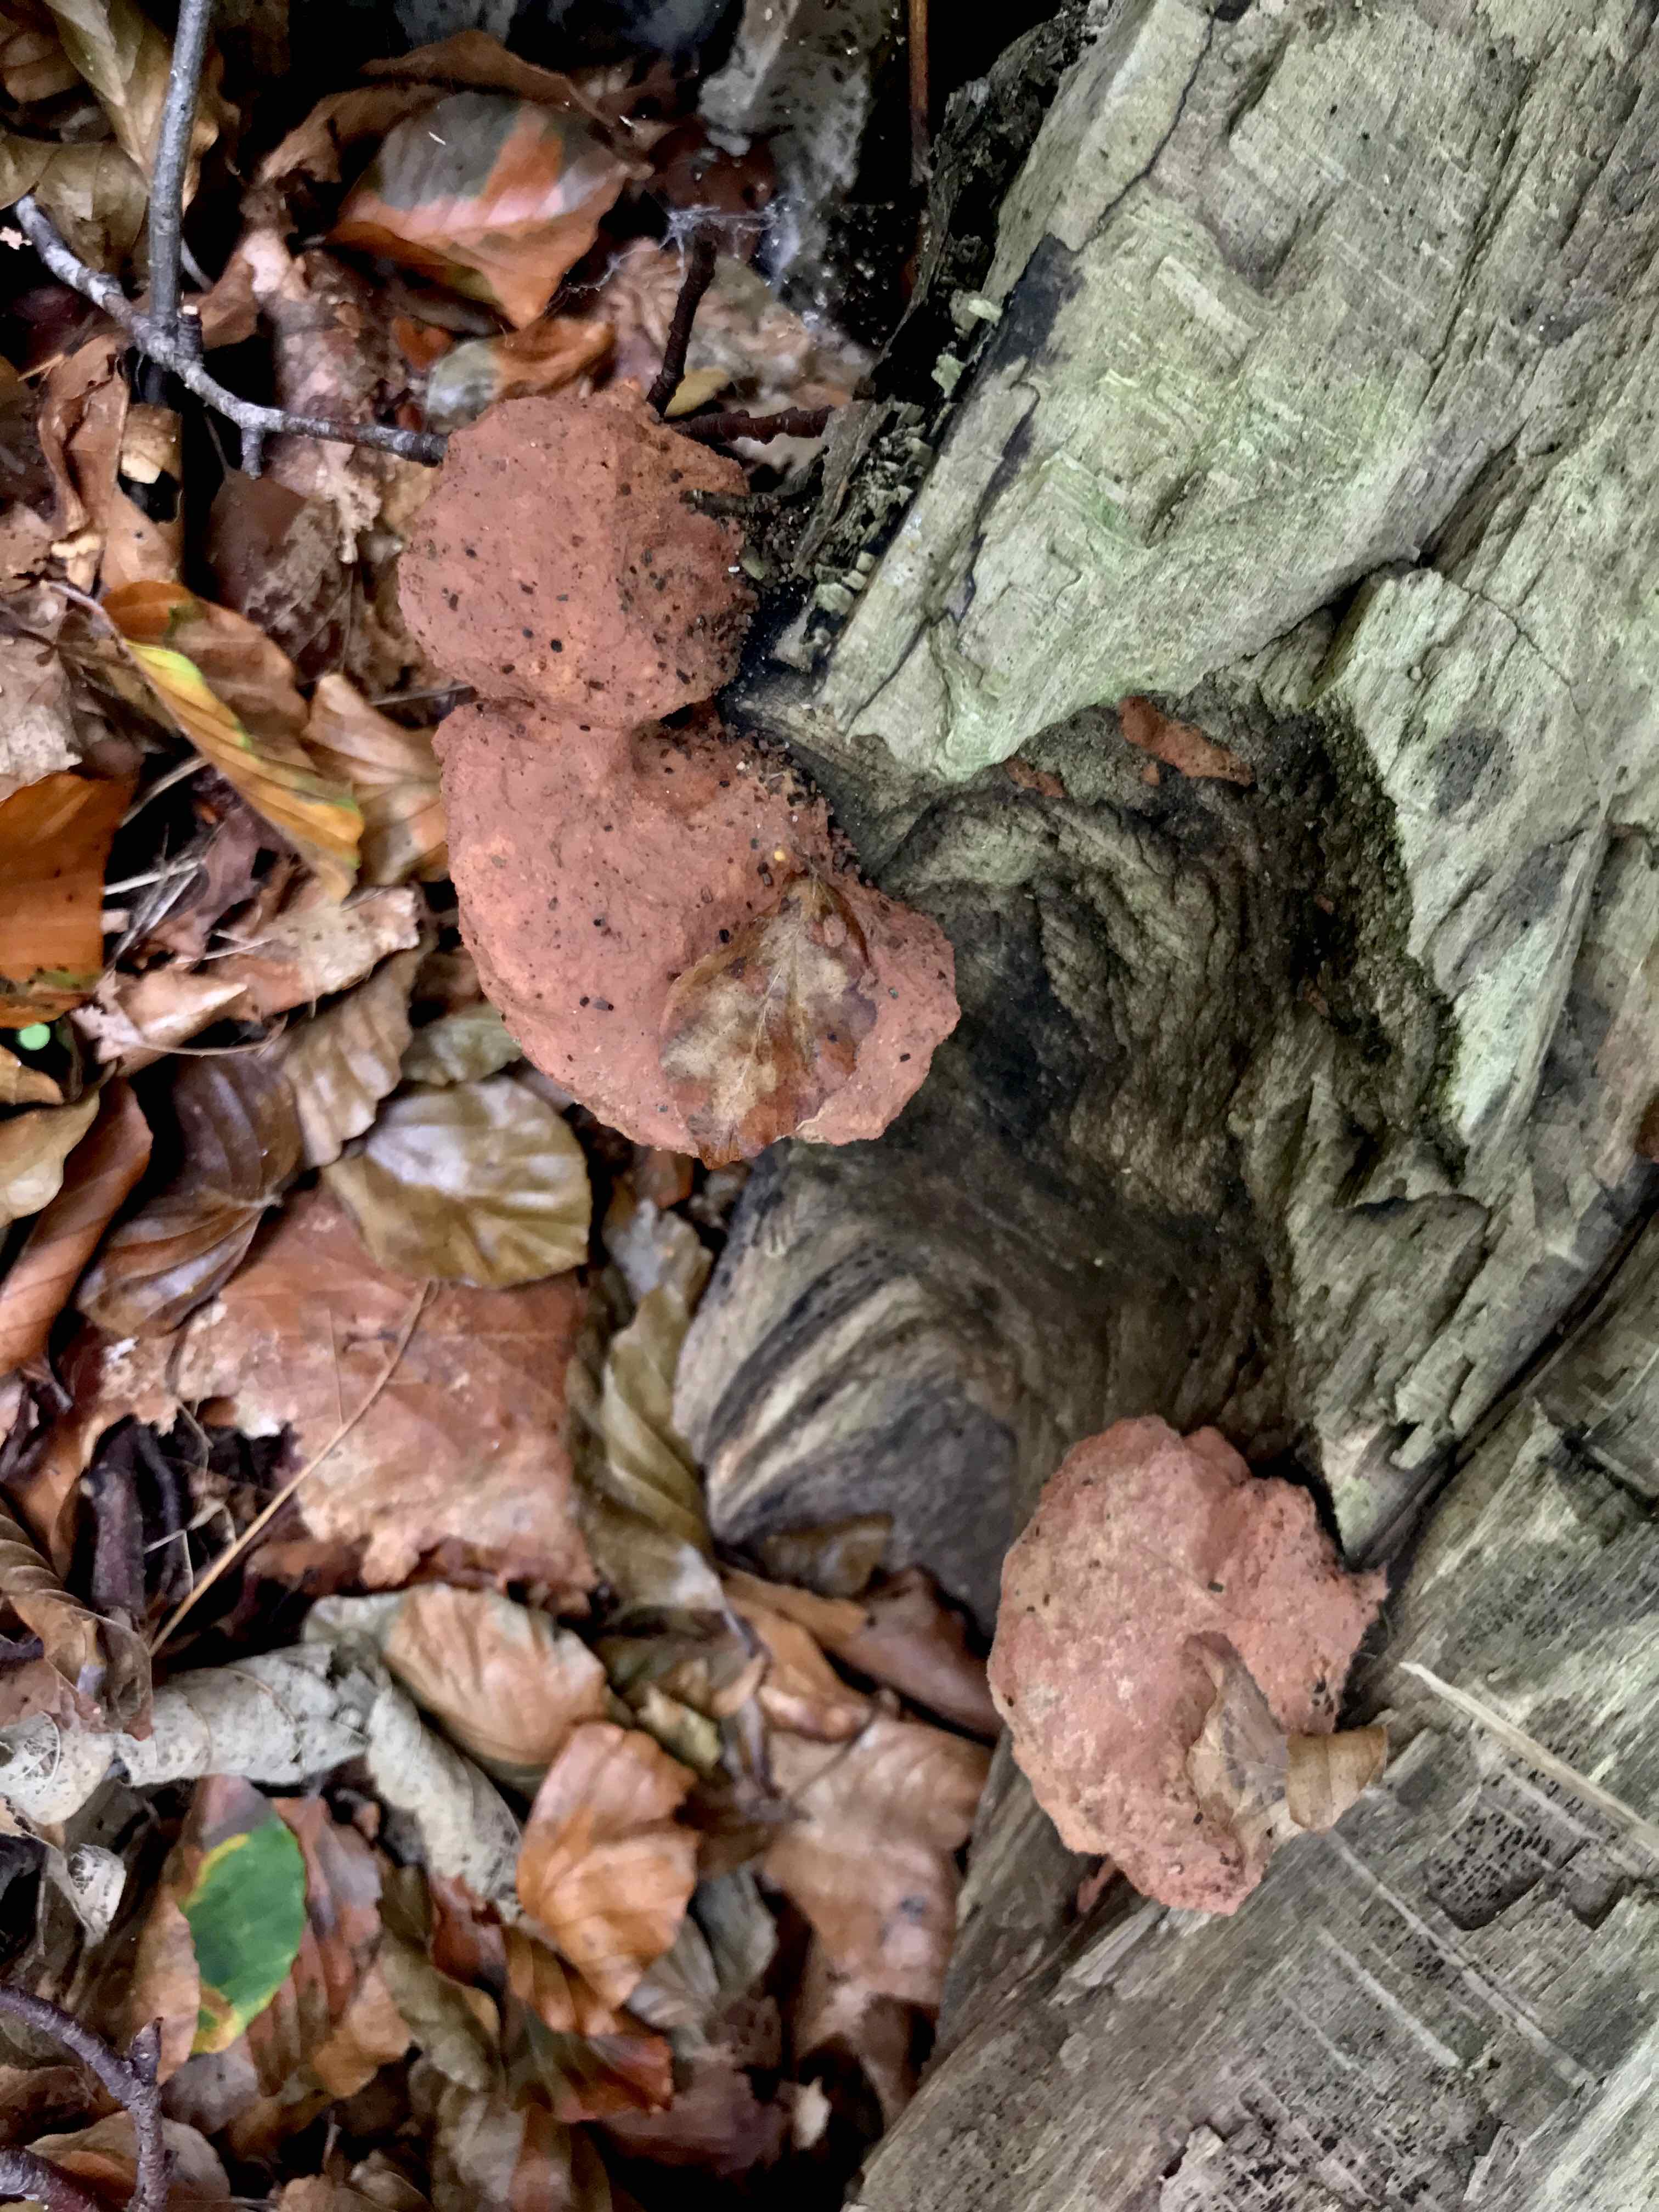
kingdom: Fungi
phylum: Basidiomycota
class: Agaricomycetes
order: Polyporales
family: Phanerochaetaceae
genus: Hapalopilus
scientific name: Hapalopilus rutilans
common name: rødlig okkerporesvamp
